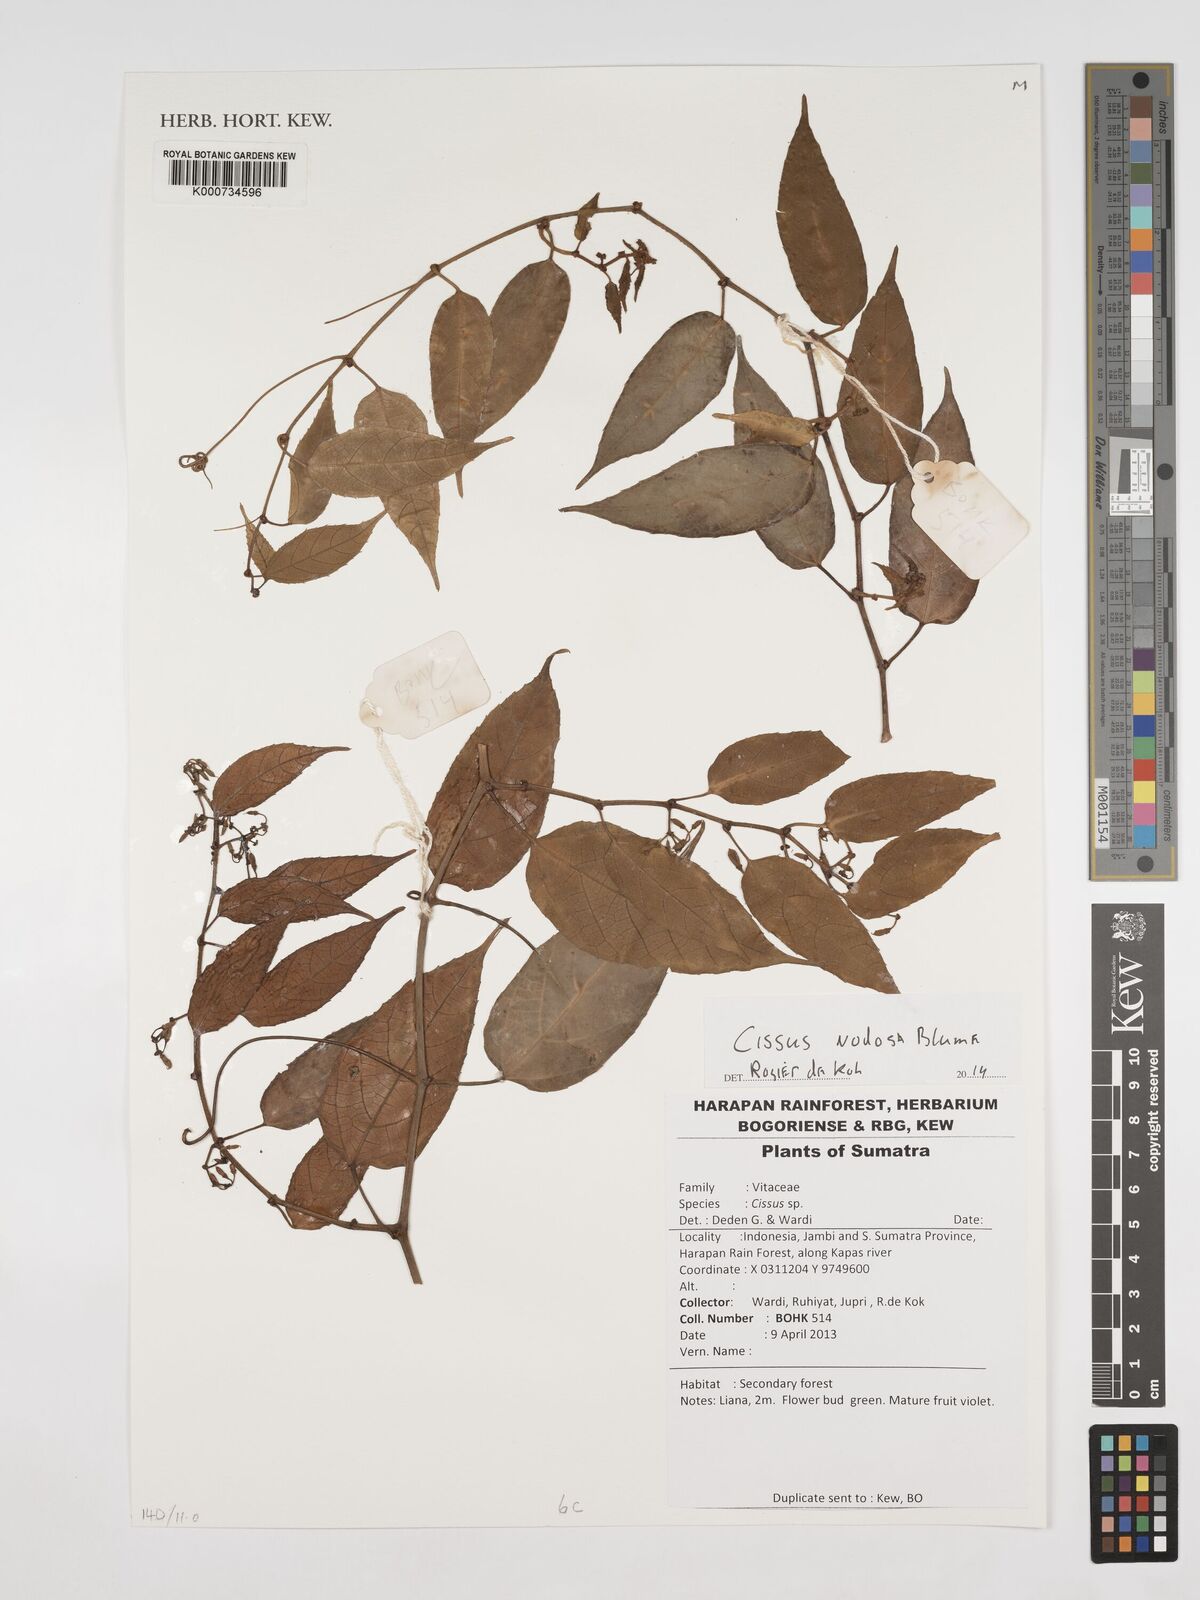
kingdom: Plantae
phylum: Tracheophyta
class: Magnoliopsida
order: Fabales
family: Polygalaceae
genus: Xanthophyllum
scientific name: Xanthophyllum obscurum
